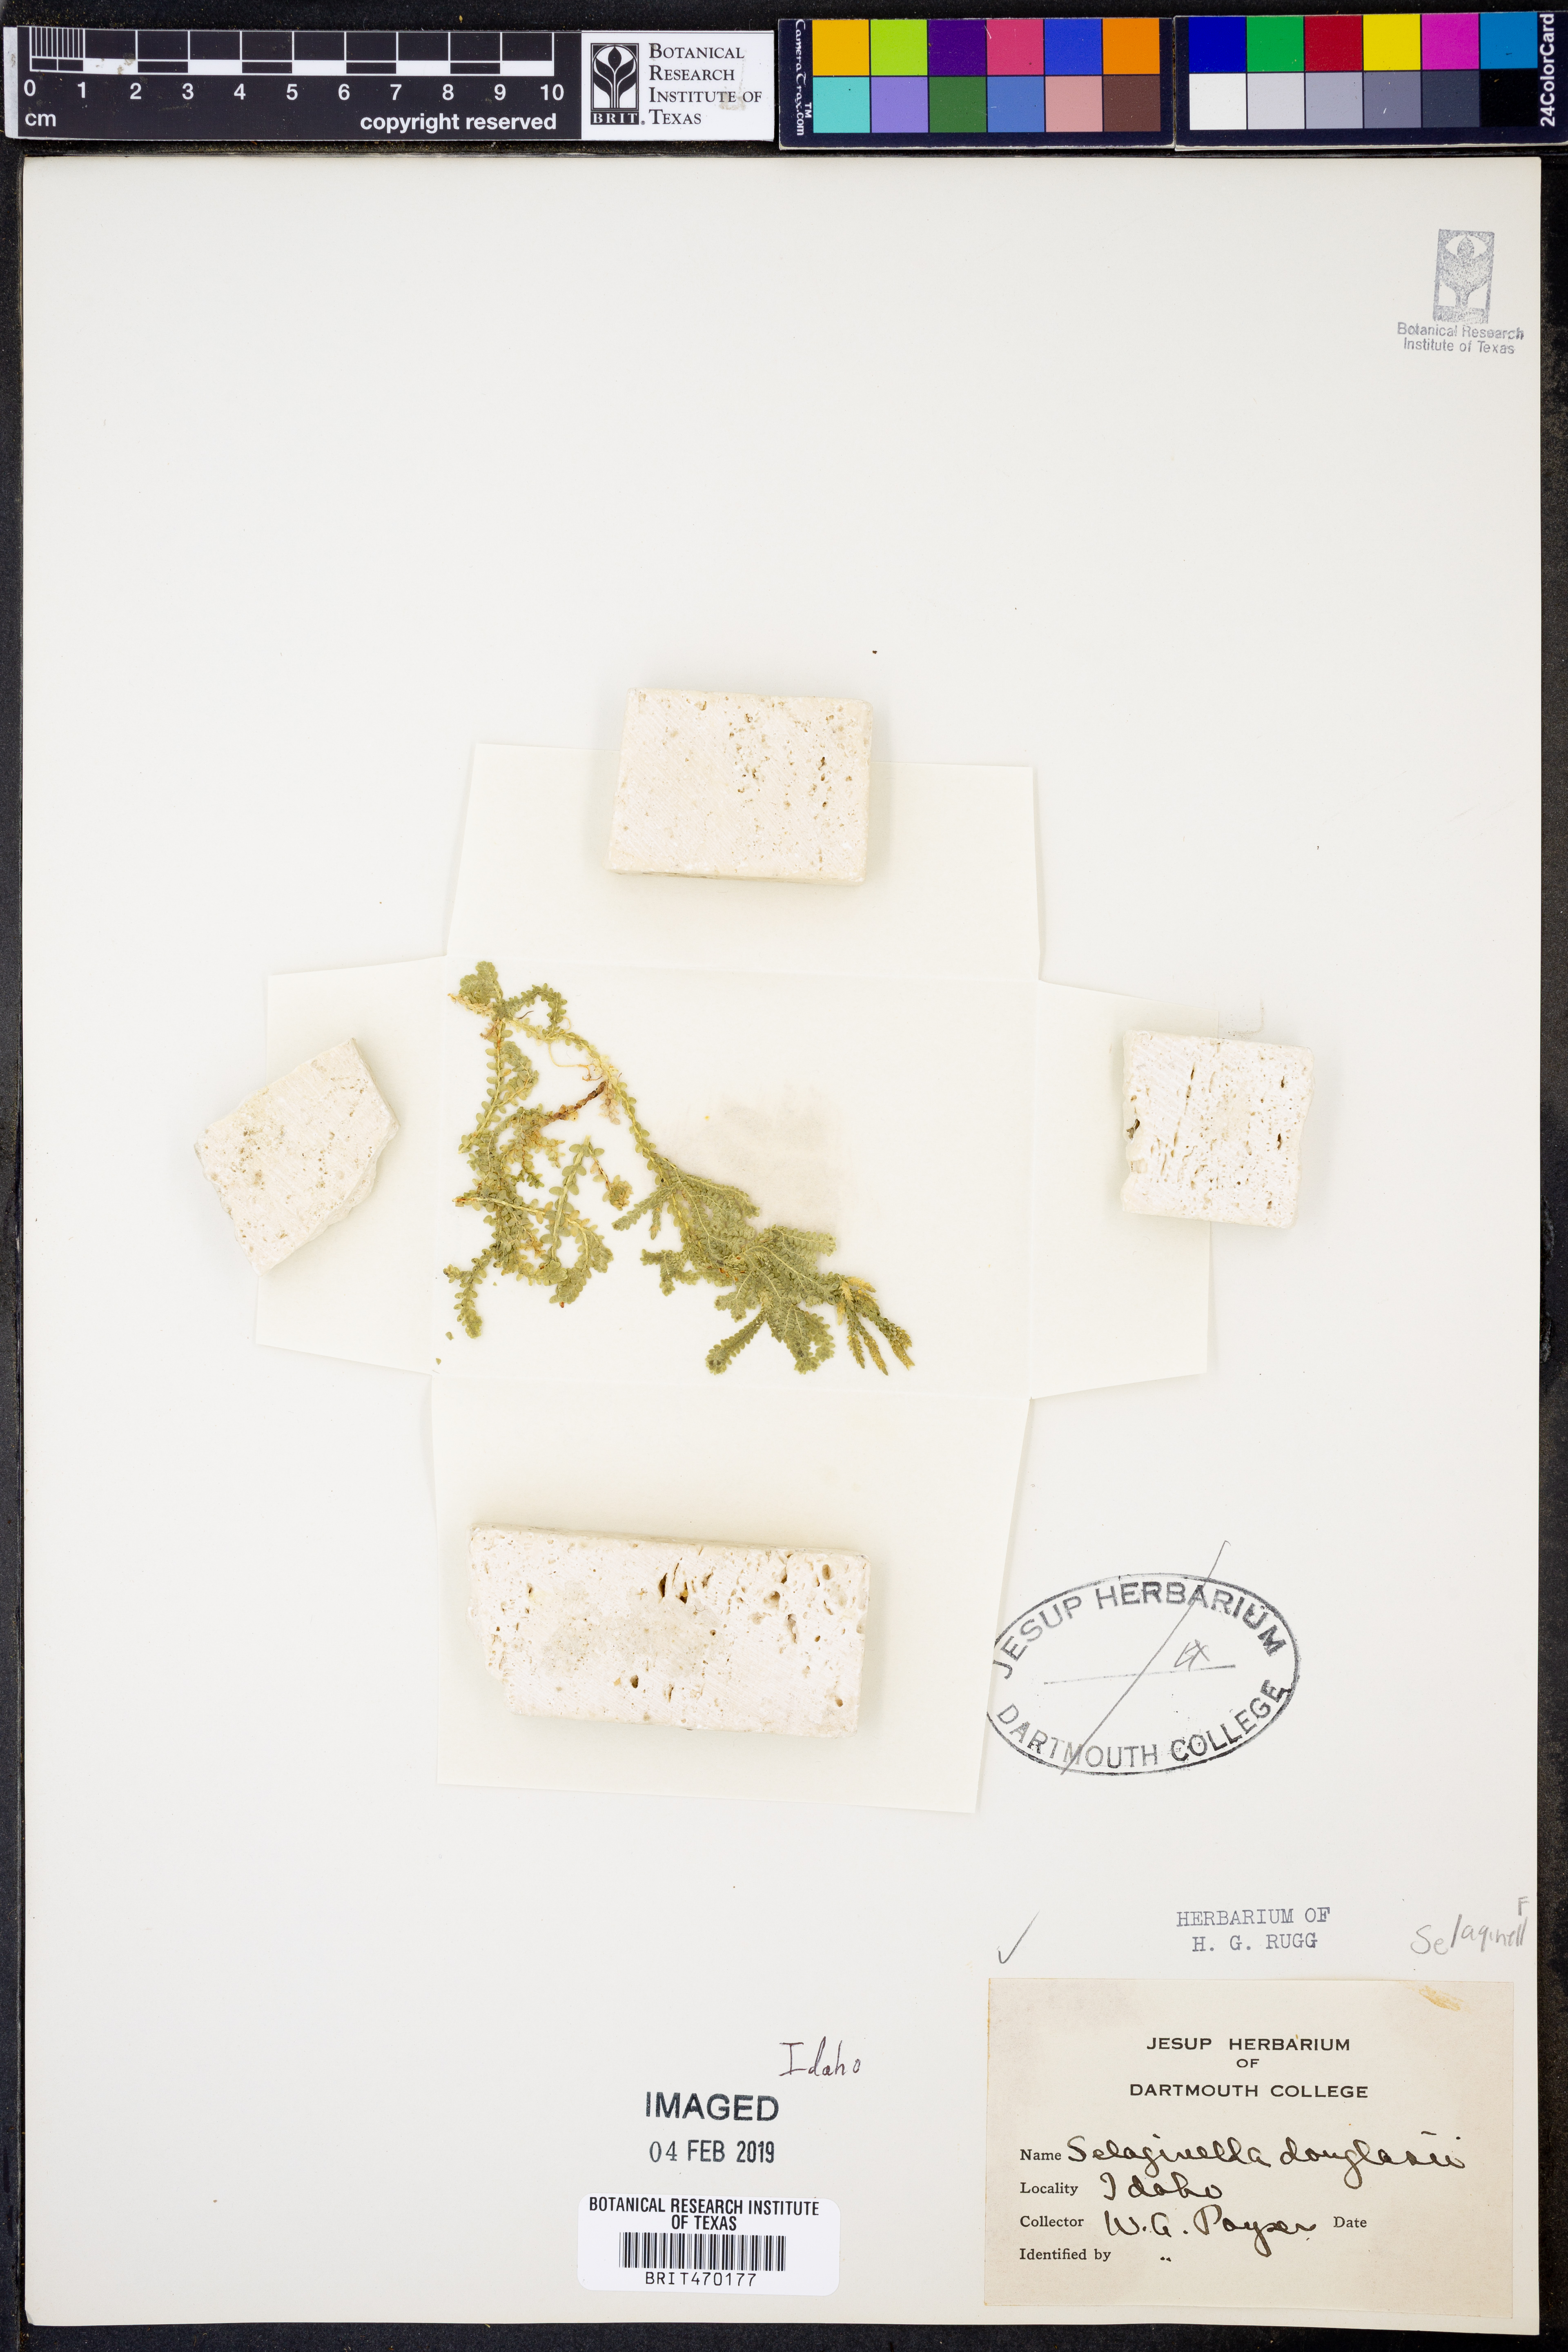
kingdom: Plantae
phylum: Tracheophyta
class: Lycopodiopsida
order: Selaginellales
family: Selaginellaceae
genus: Selaginella
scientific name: Selaginella douglasii
